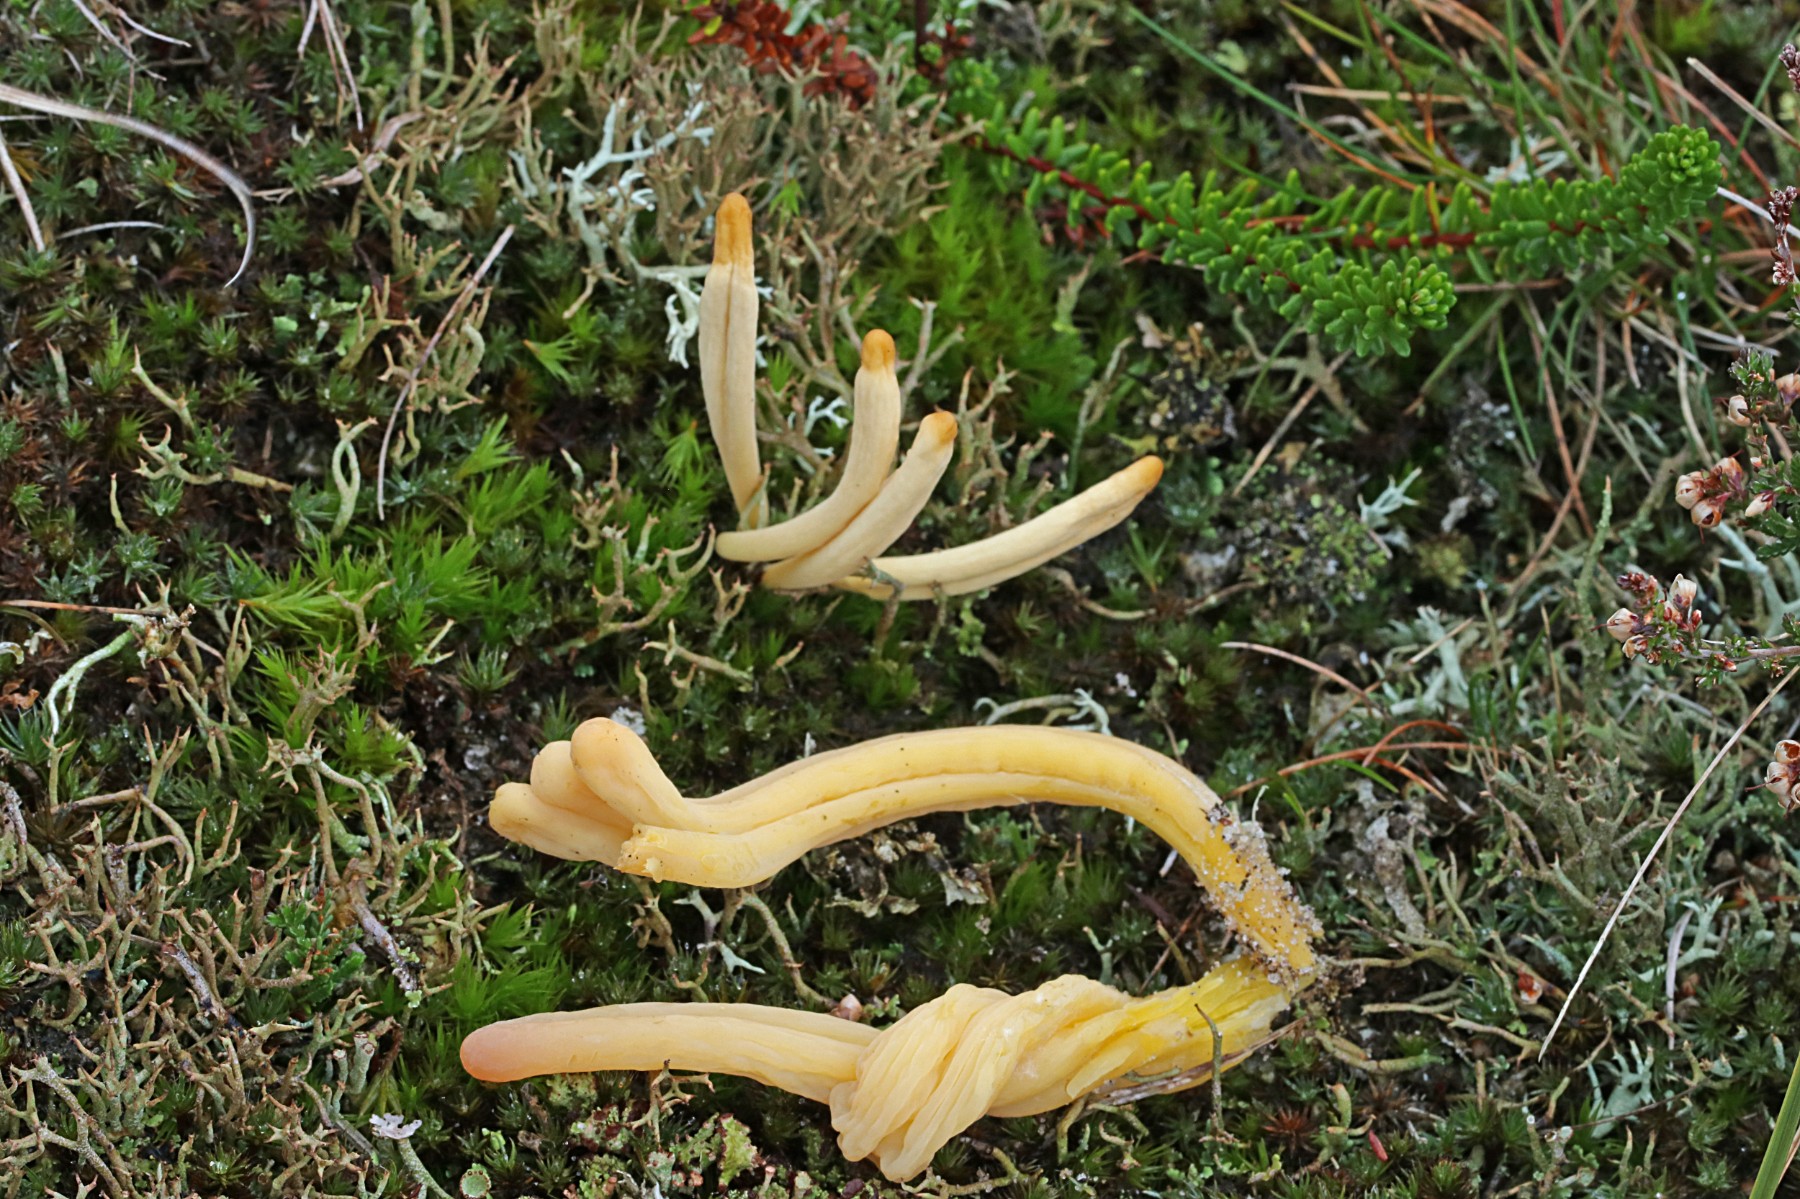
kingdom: Fungi
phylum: Basidiomycota
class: Agaricomycetes
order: Agaricales
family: Clavariaceae
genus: Clavaria
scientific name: Clavaria argillacea
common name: lerfarvet køllesvamp
